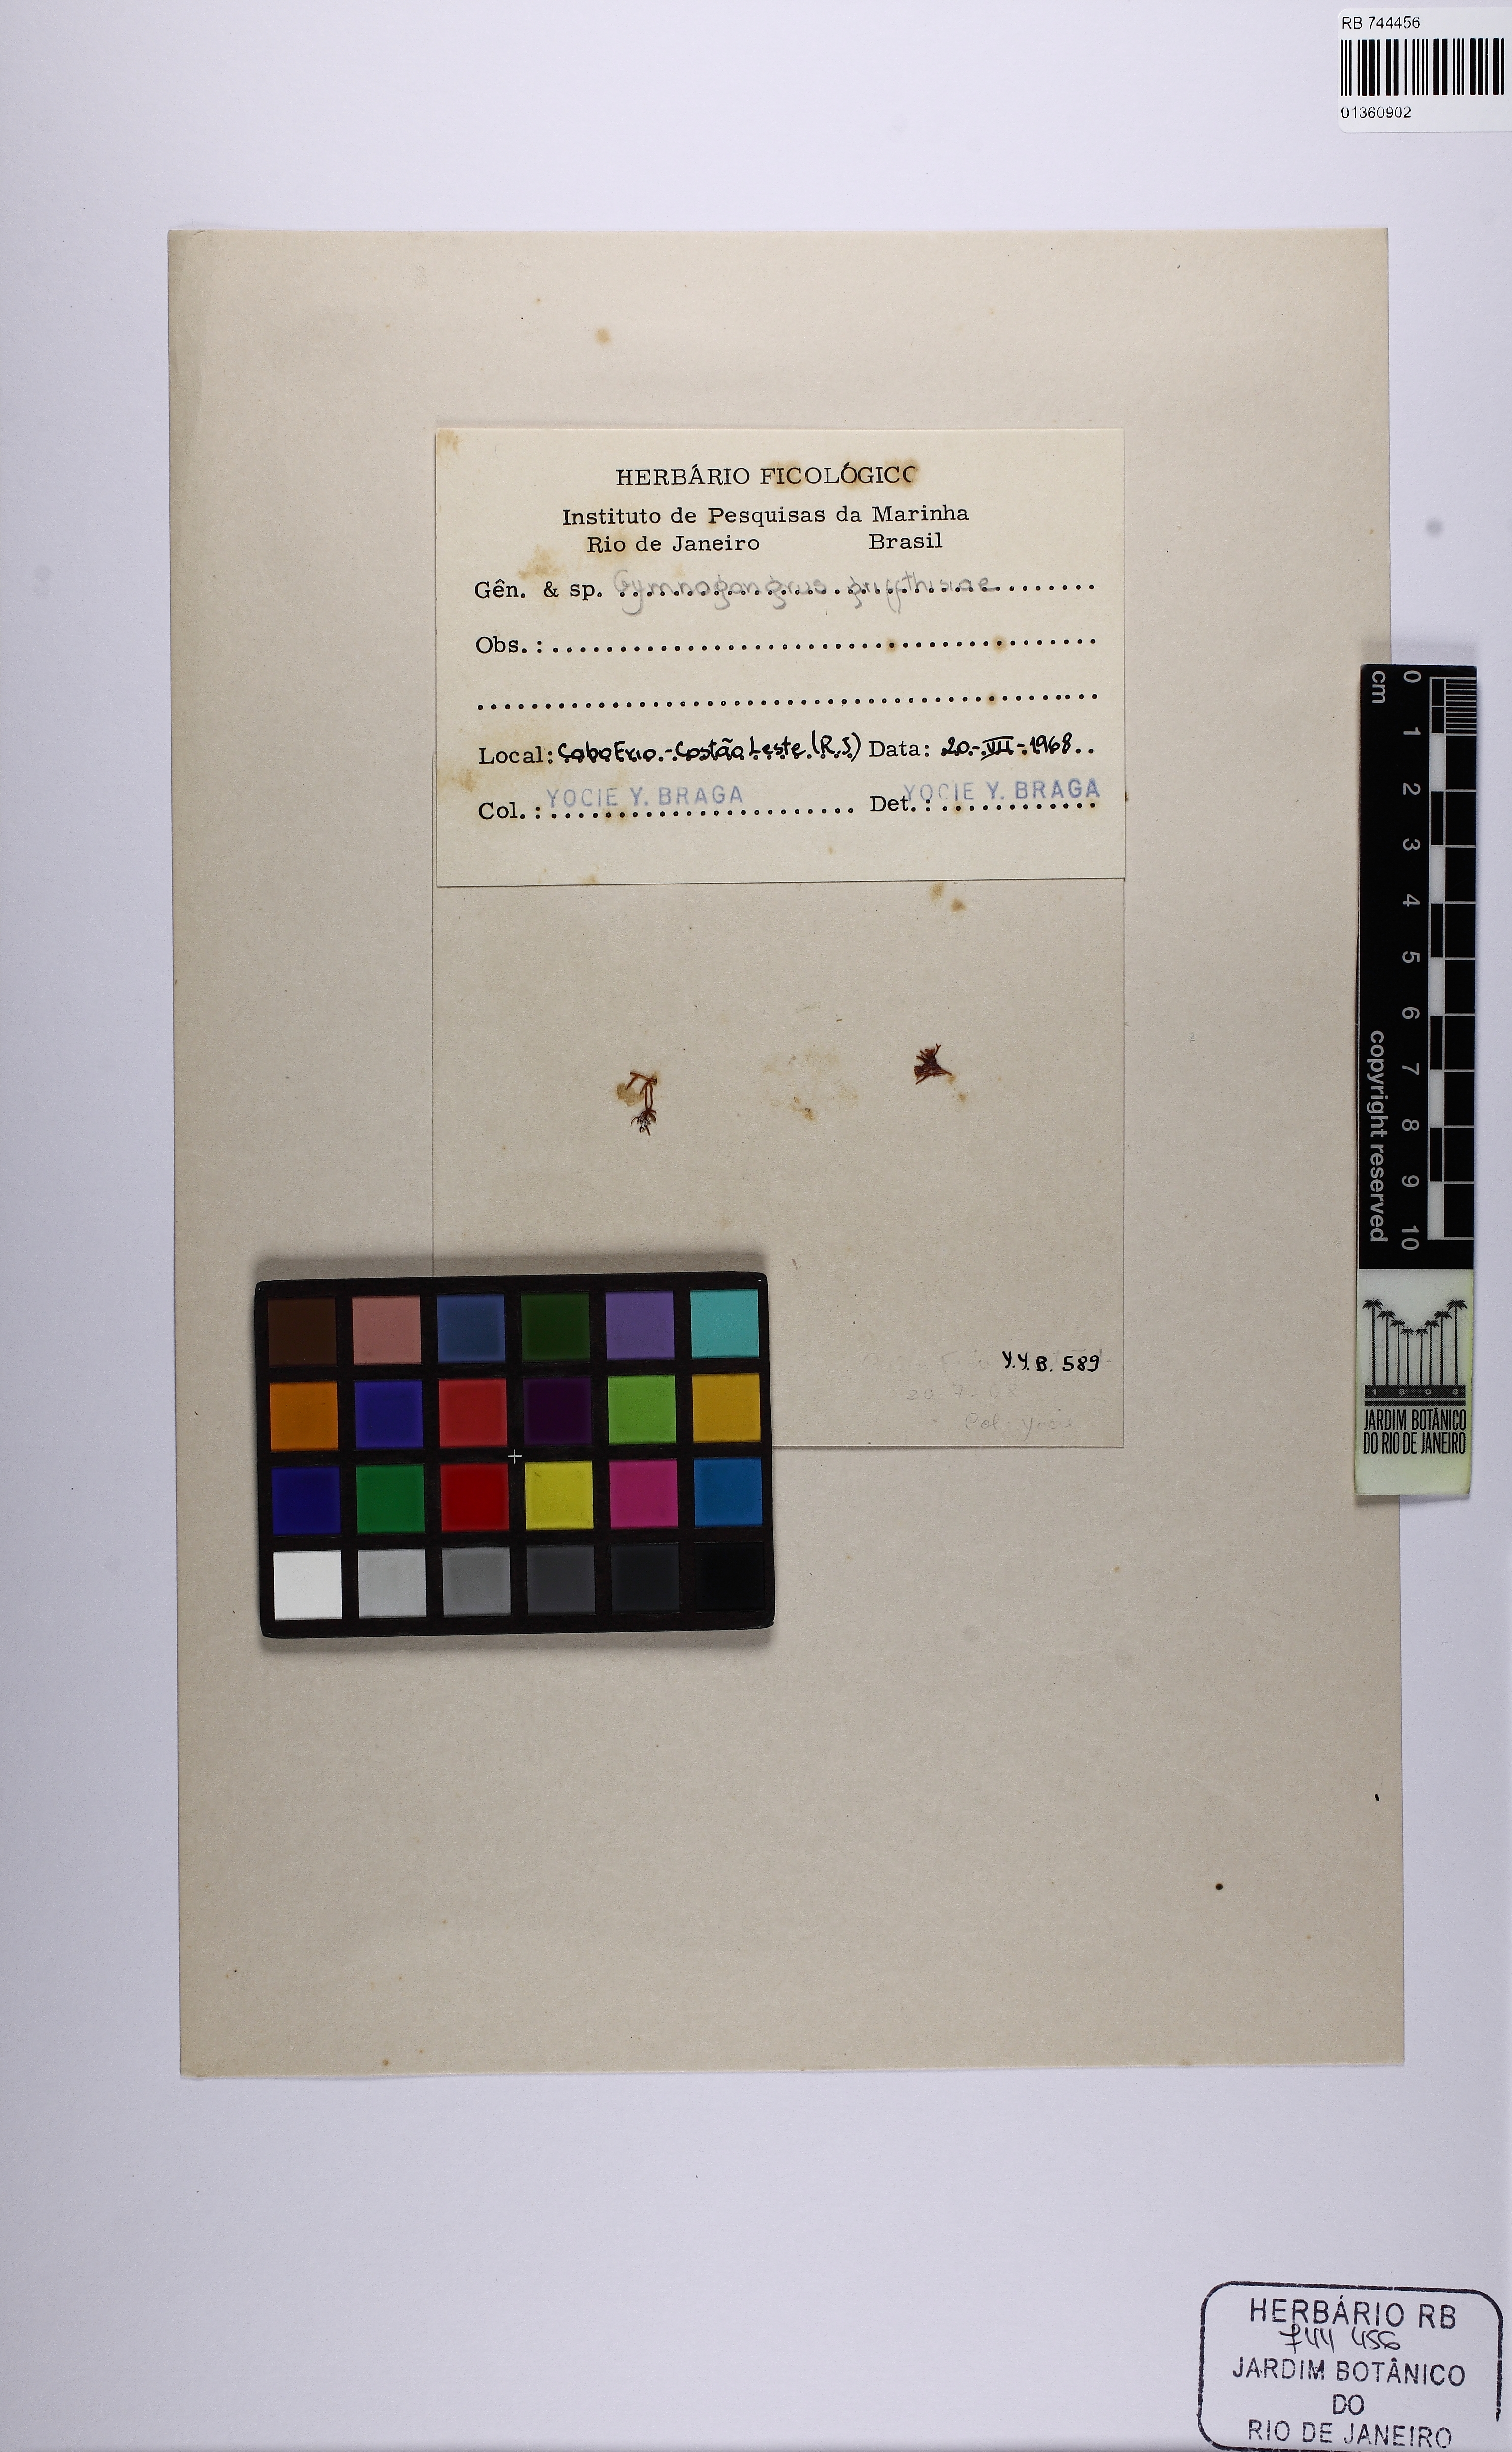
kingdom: Plantae
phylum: Rhodophyta
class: Florideophyceae
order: Gigartinales
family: Phyllophoraceae
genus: Gymnogongrus
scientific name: Gymnogongrus griffithsiae
